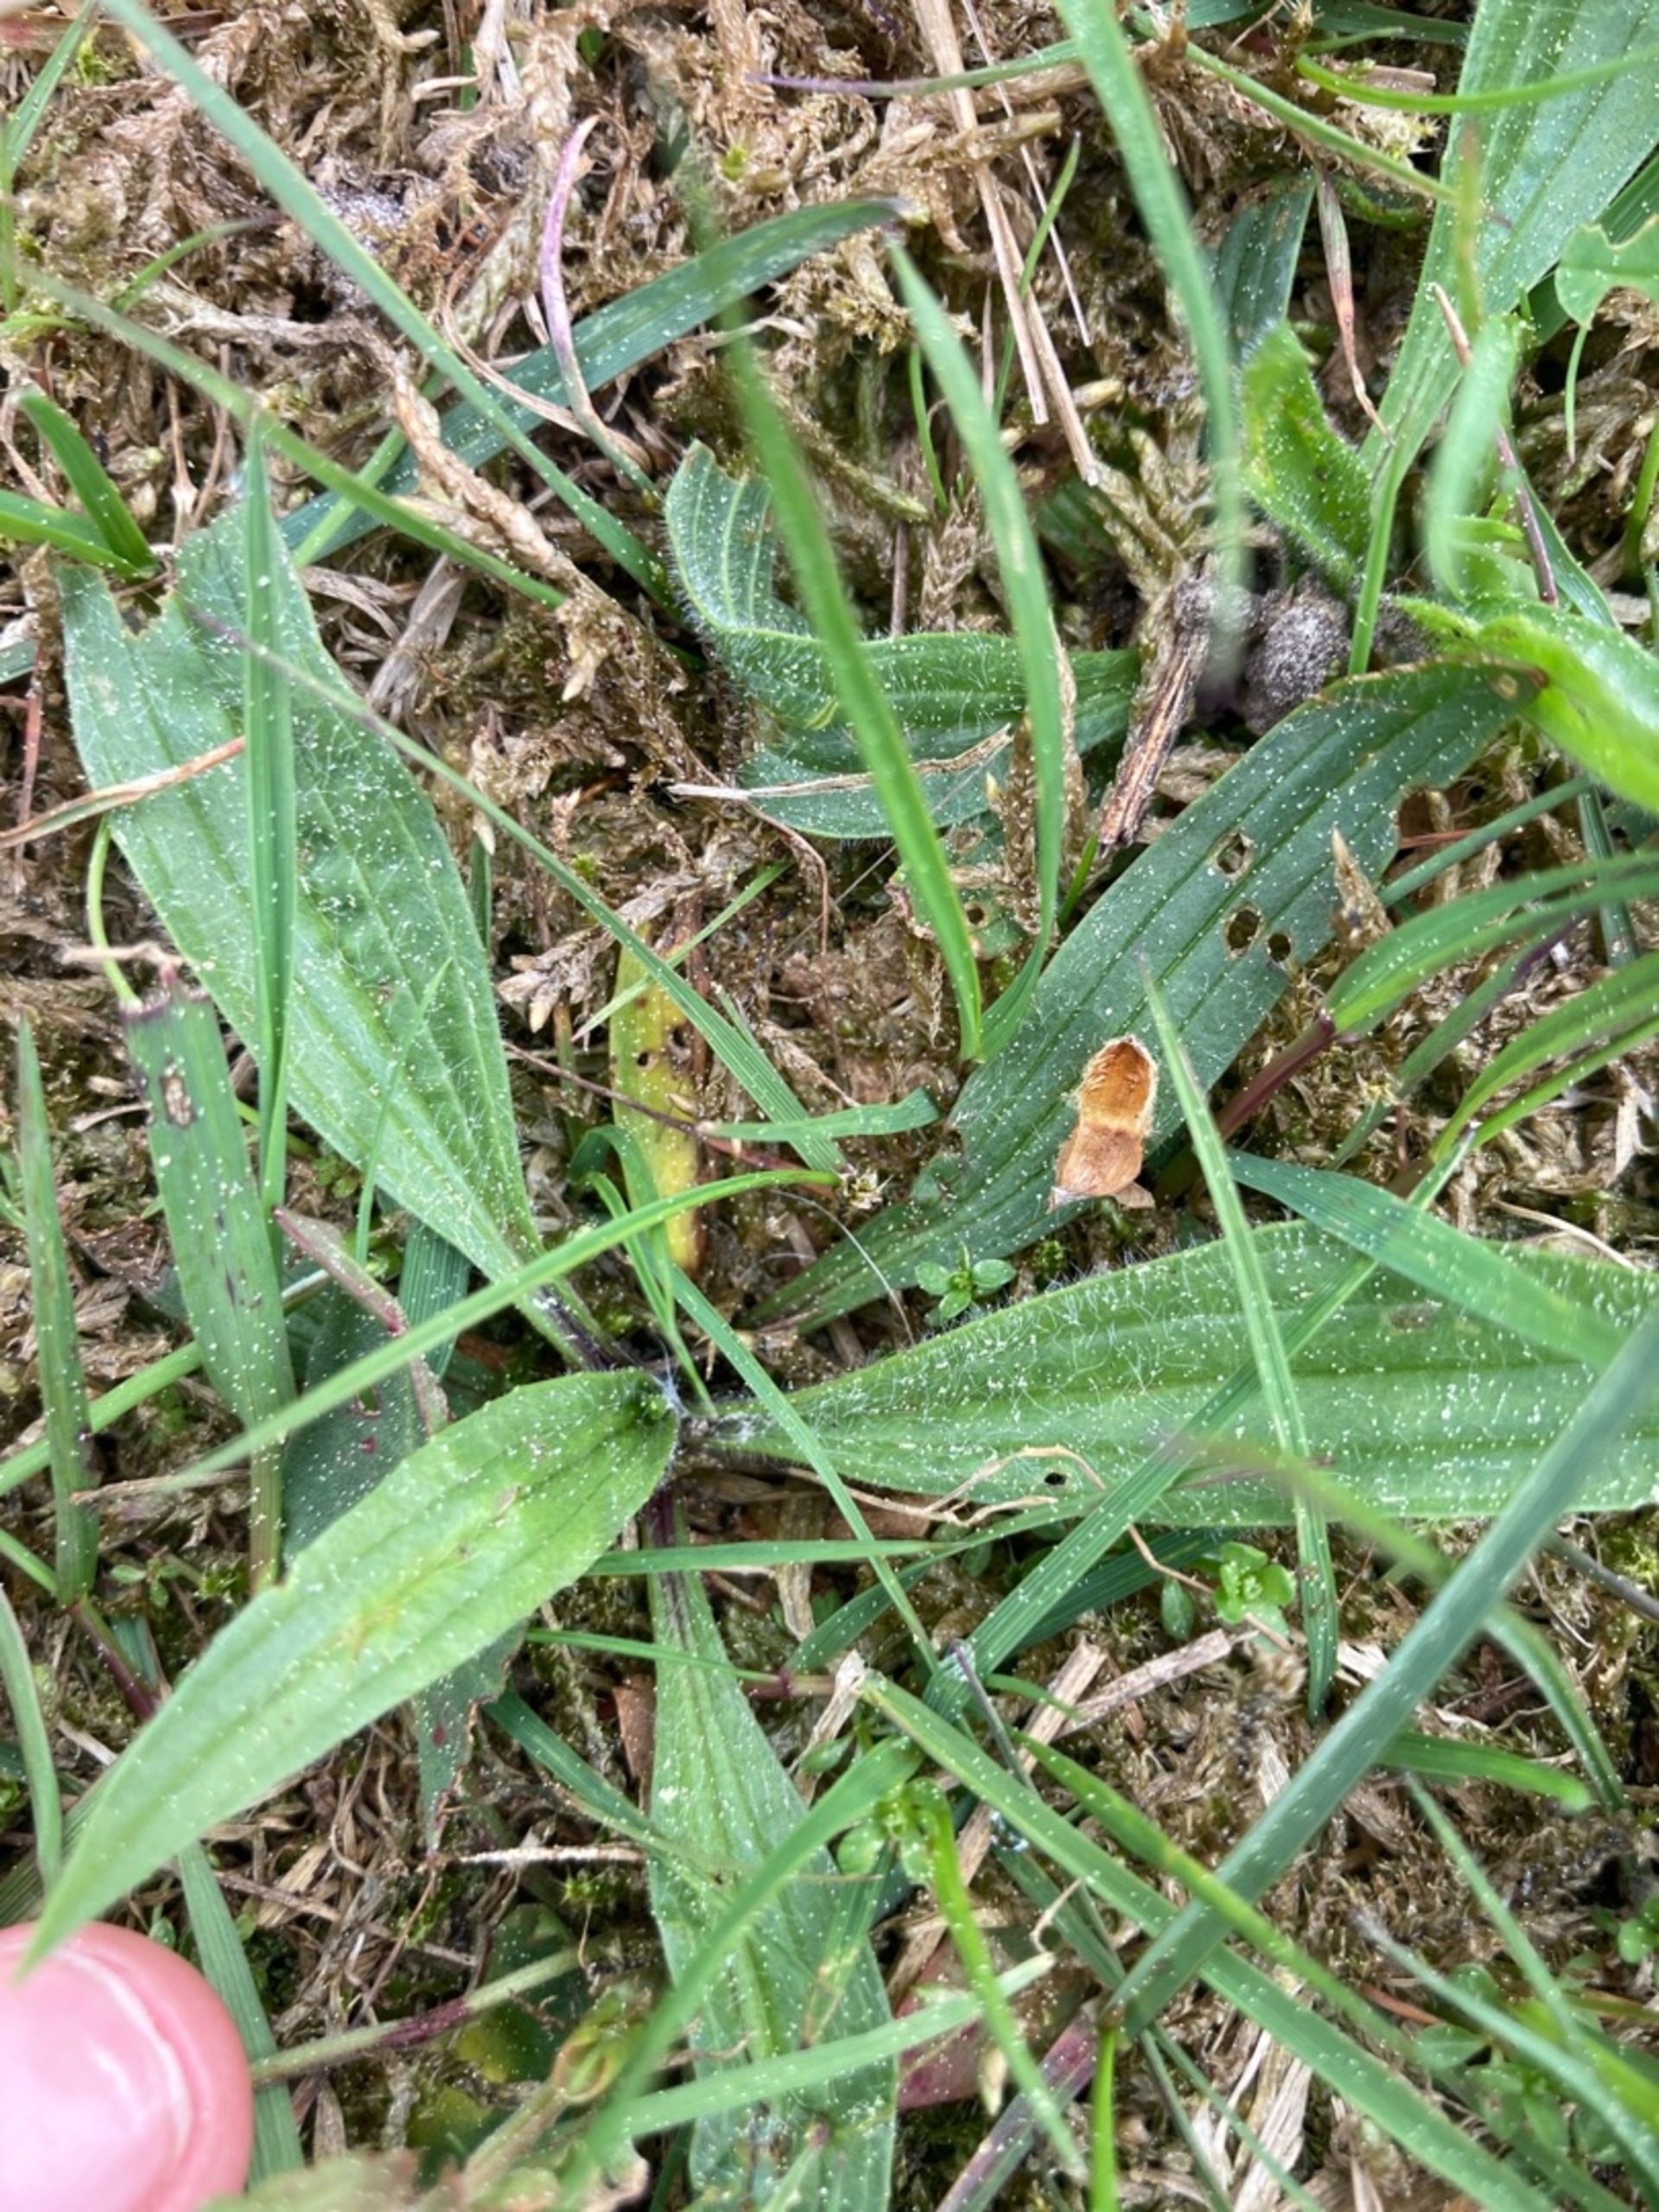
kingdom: Plantae
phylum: Tracheophyta
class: Magnoliopsida
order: Lamiales
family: Plantaginaceae
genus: Plantago
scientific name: Plantago lanceolata
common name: Lancet-vejbred
